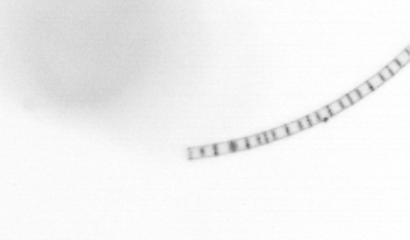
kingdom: Chromista
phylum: Ochrophyta
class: Bacillariophyceae
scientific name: Bacillariophyceae
